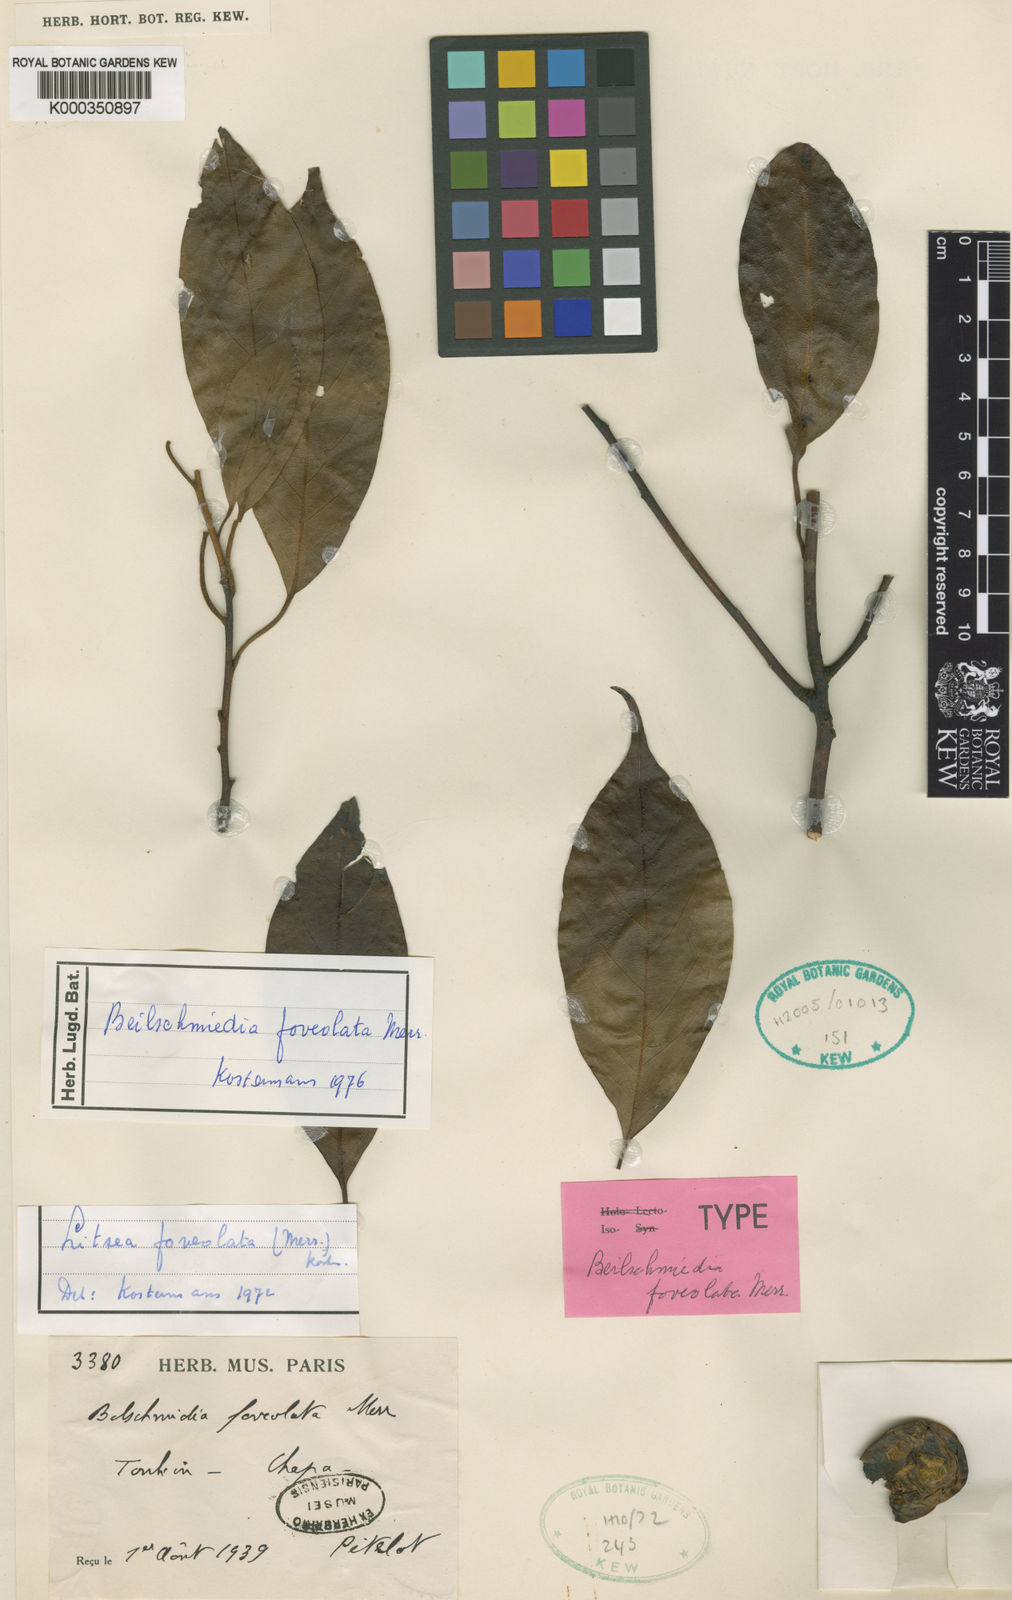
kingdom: Plantae
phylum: Tracheophyta
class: Magnoliopsida
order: Laurales
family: Lauraceae
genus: Cinnamomum
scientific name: Cinnamomum foveolatum
